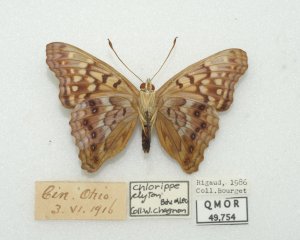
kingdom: Animalia
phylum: Arthropoda
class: Insecta
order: Lepidoptera
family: Nymphalidae
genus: Asterocampa
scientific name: Asterocampa clyton
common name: Tawny Emperor
